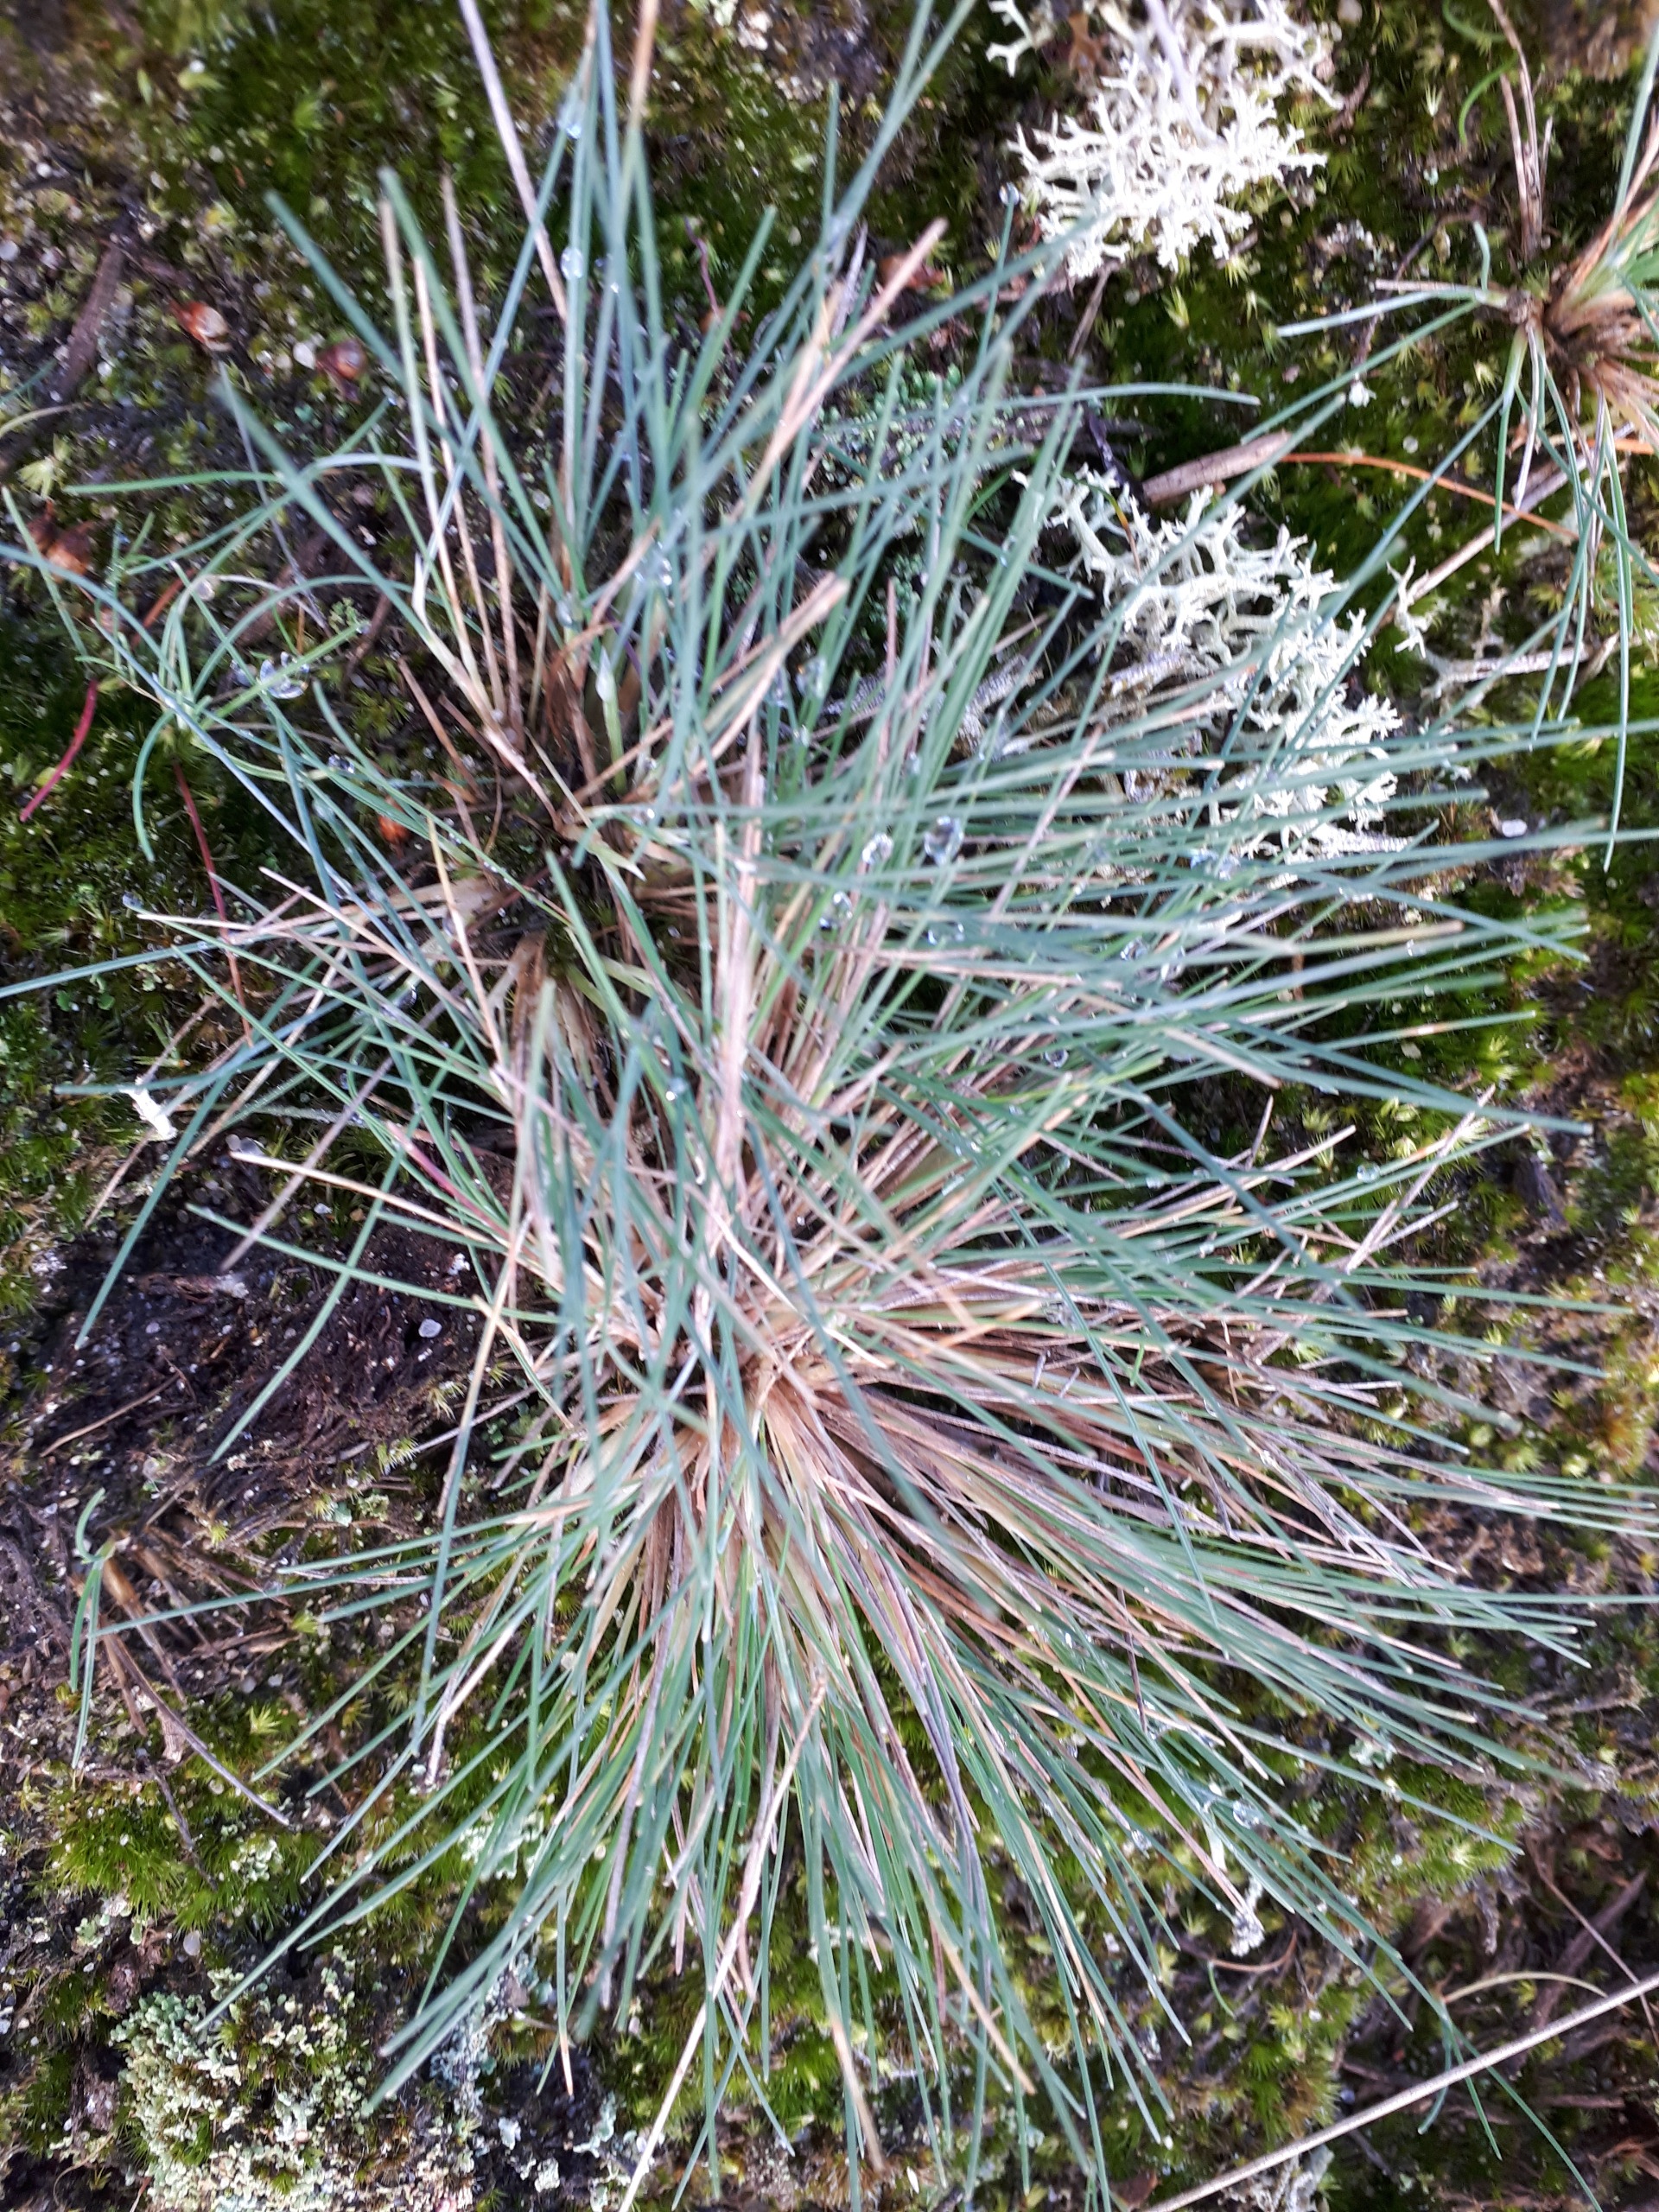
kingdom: Plantae
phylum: Tracheophyta
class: Liliopsida
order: Poales
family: Poaceae
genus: Corynephorus
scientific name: Corynephorus canescens
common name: Sandskæg
